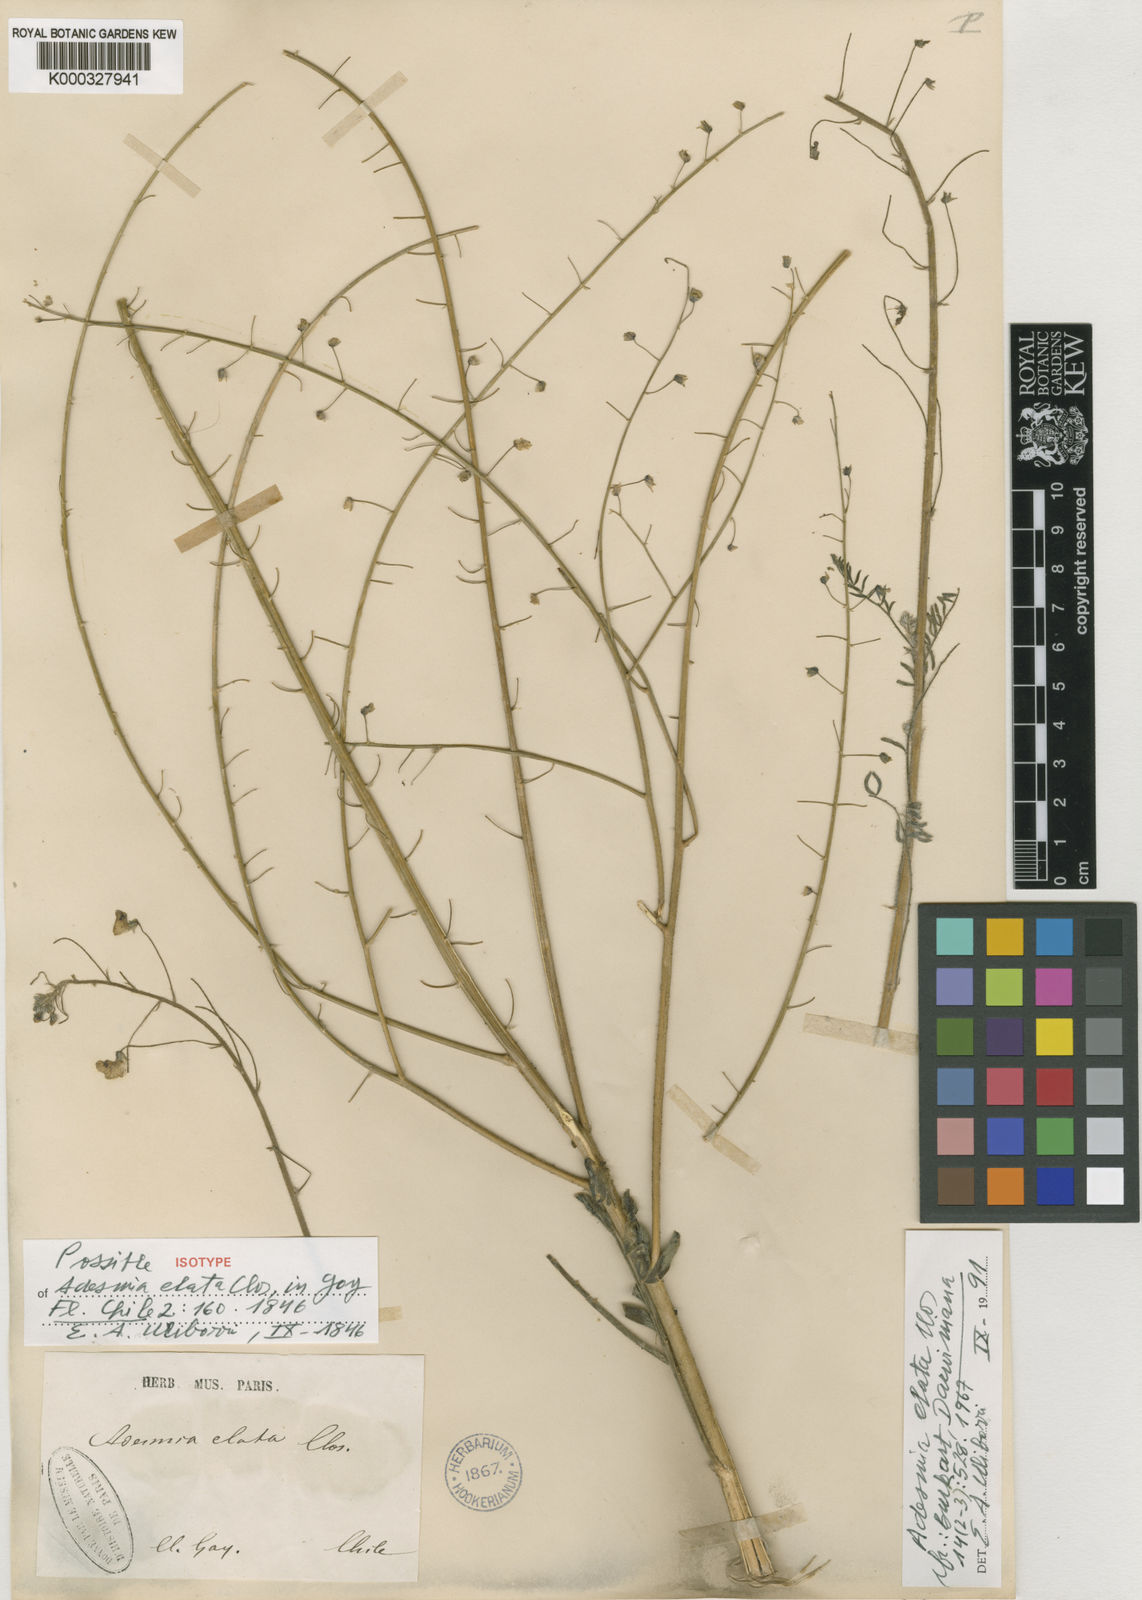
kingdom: Plantae
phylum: Tracheophyta
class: Magnoliopsida
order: Fabales
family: Fabaceae
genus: Adesmia
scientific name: Adesmia leiocarpa
